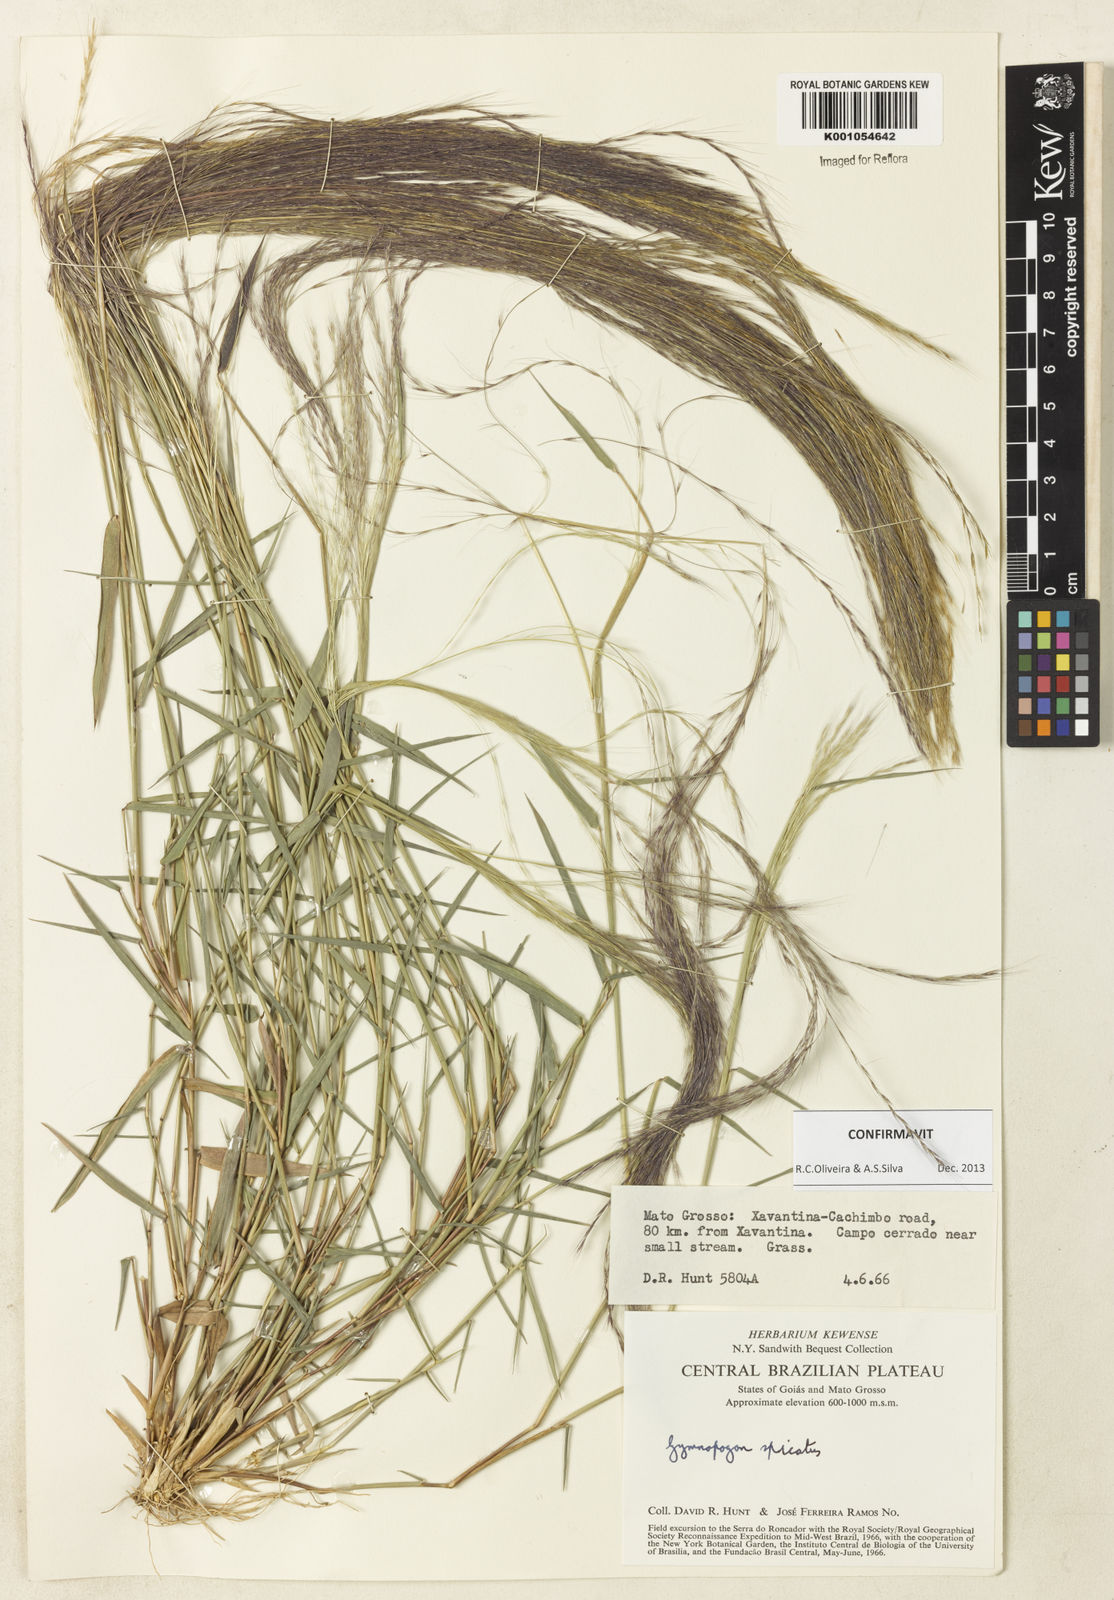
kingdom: Plantae
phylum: Tracheophyta
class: Liliopsida
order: Poales
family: Poaceae
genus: Gymnopogon
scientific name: Gymnopogon spicatus
